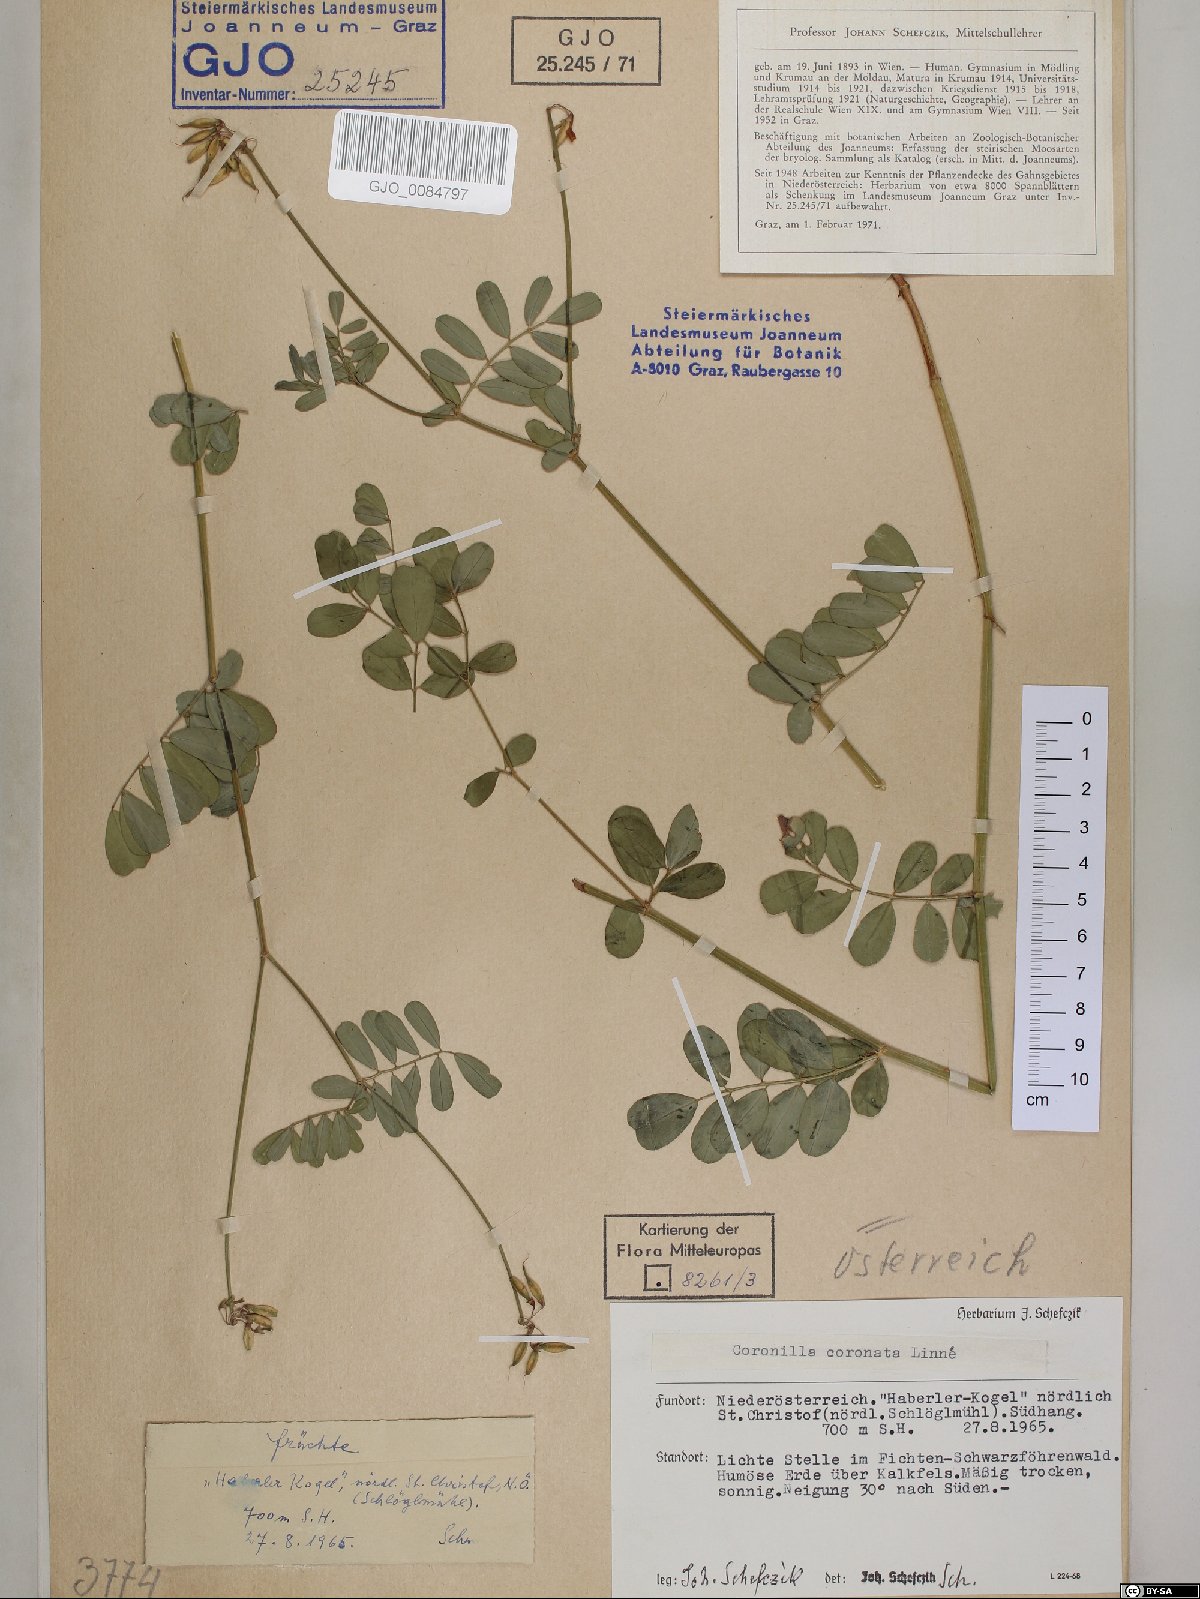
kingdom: Plantae
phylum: Tracheophyta
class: Magnoliopsida
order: Fabales
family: Fabaceae
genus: Coronilla
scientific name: Coronilla coronata
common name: Scorpion-vetch
